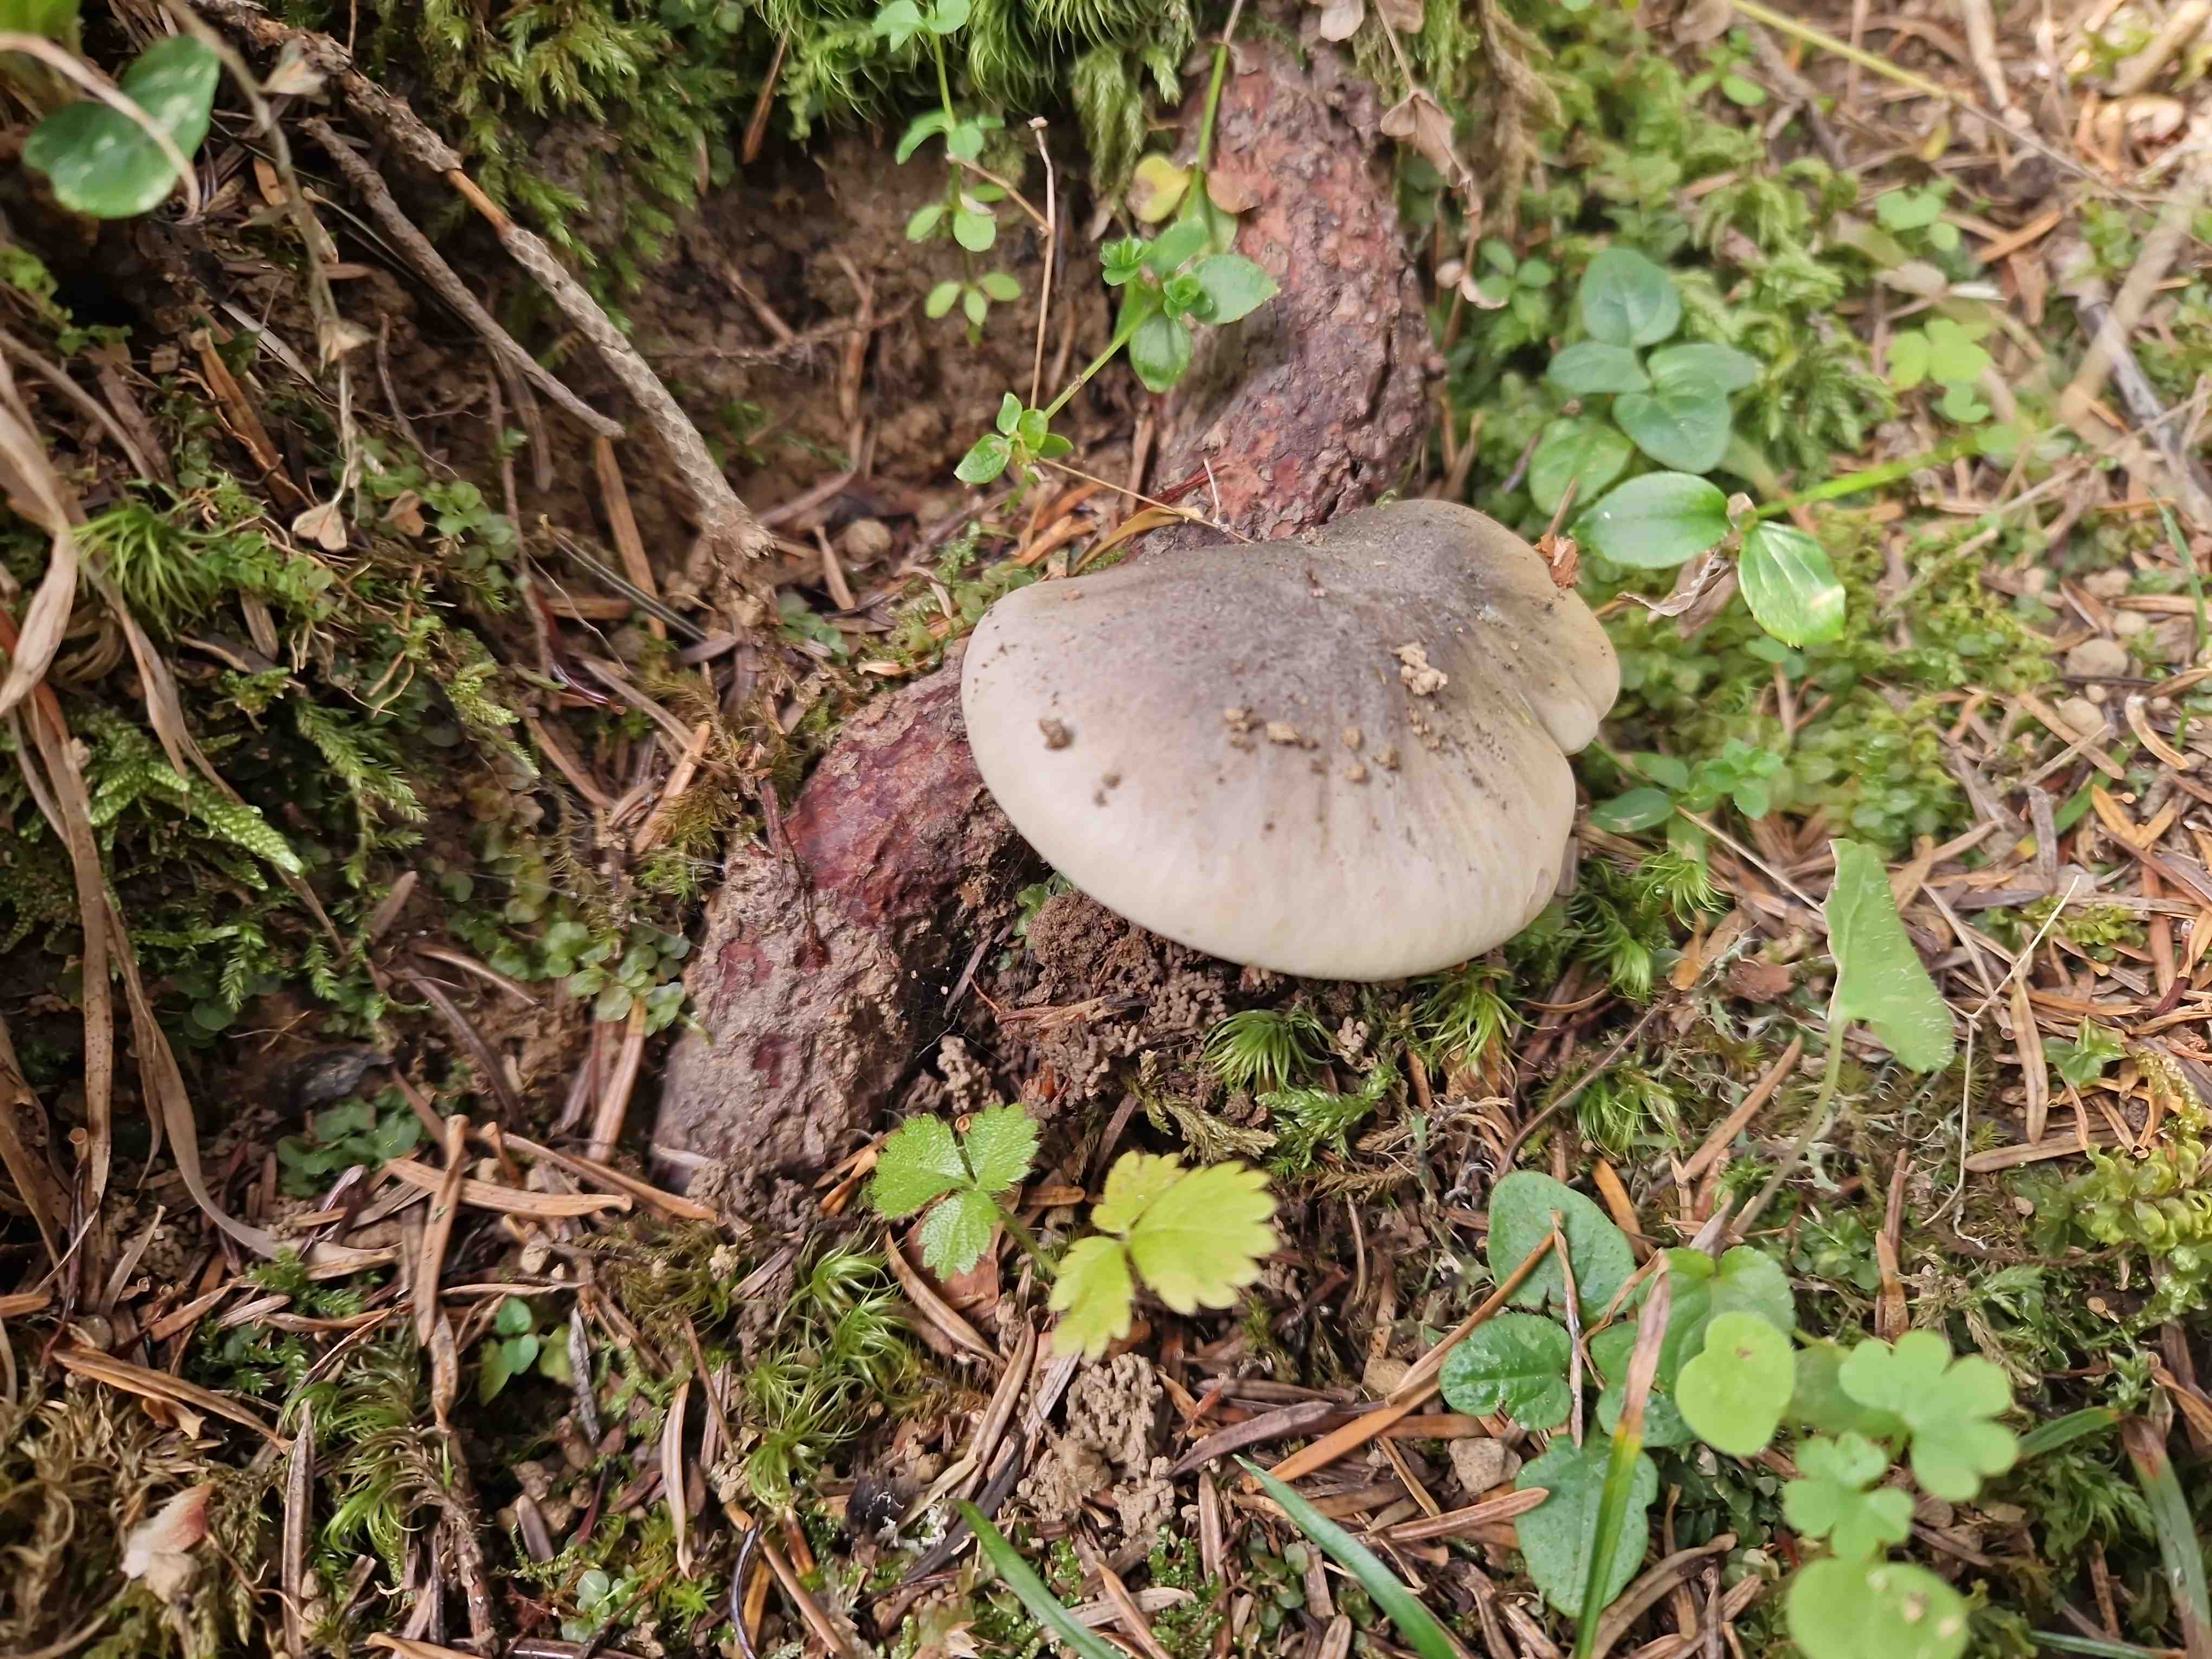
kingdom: Fungi
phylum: Basidiomycota
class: Agaricomycetes
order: Agaricales
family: Tricholomataceae
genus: Tricholoma
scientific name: Tricholoma
